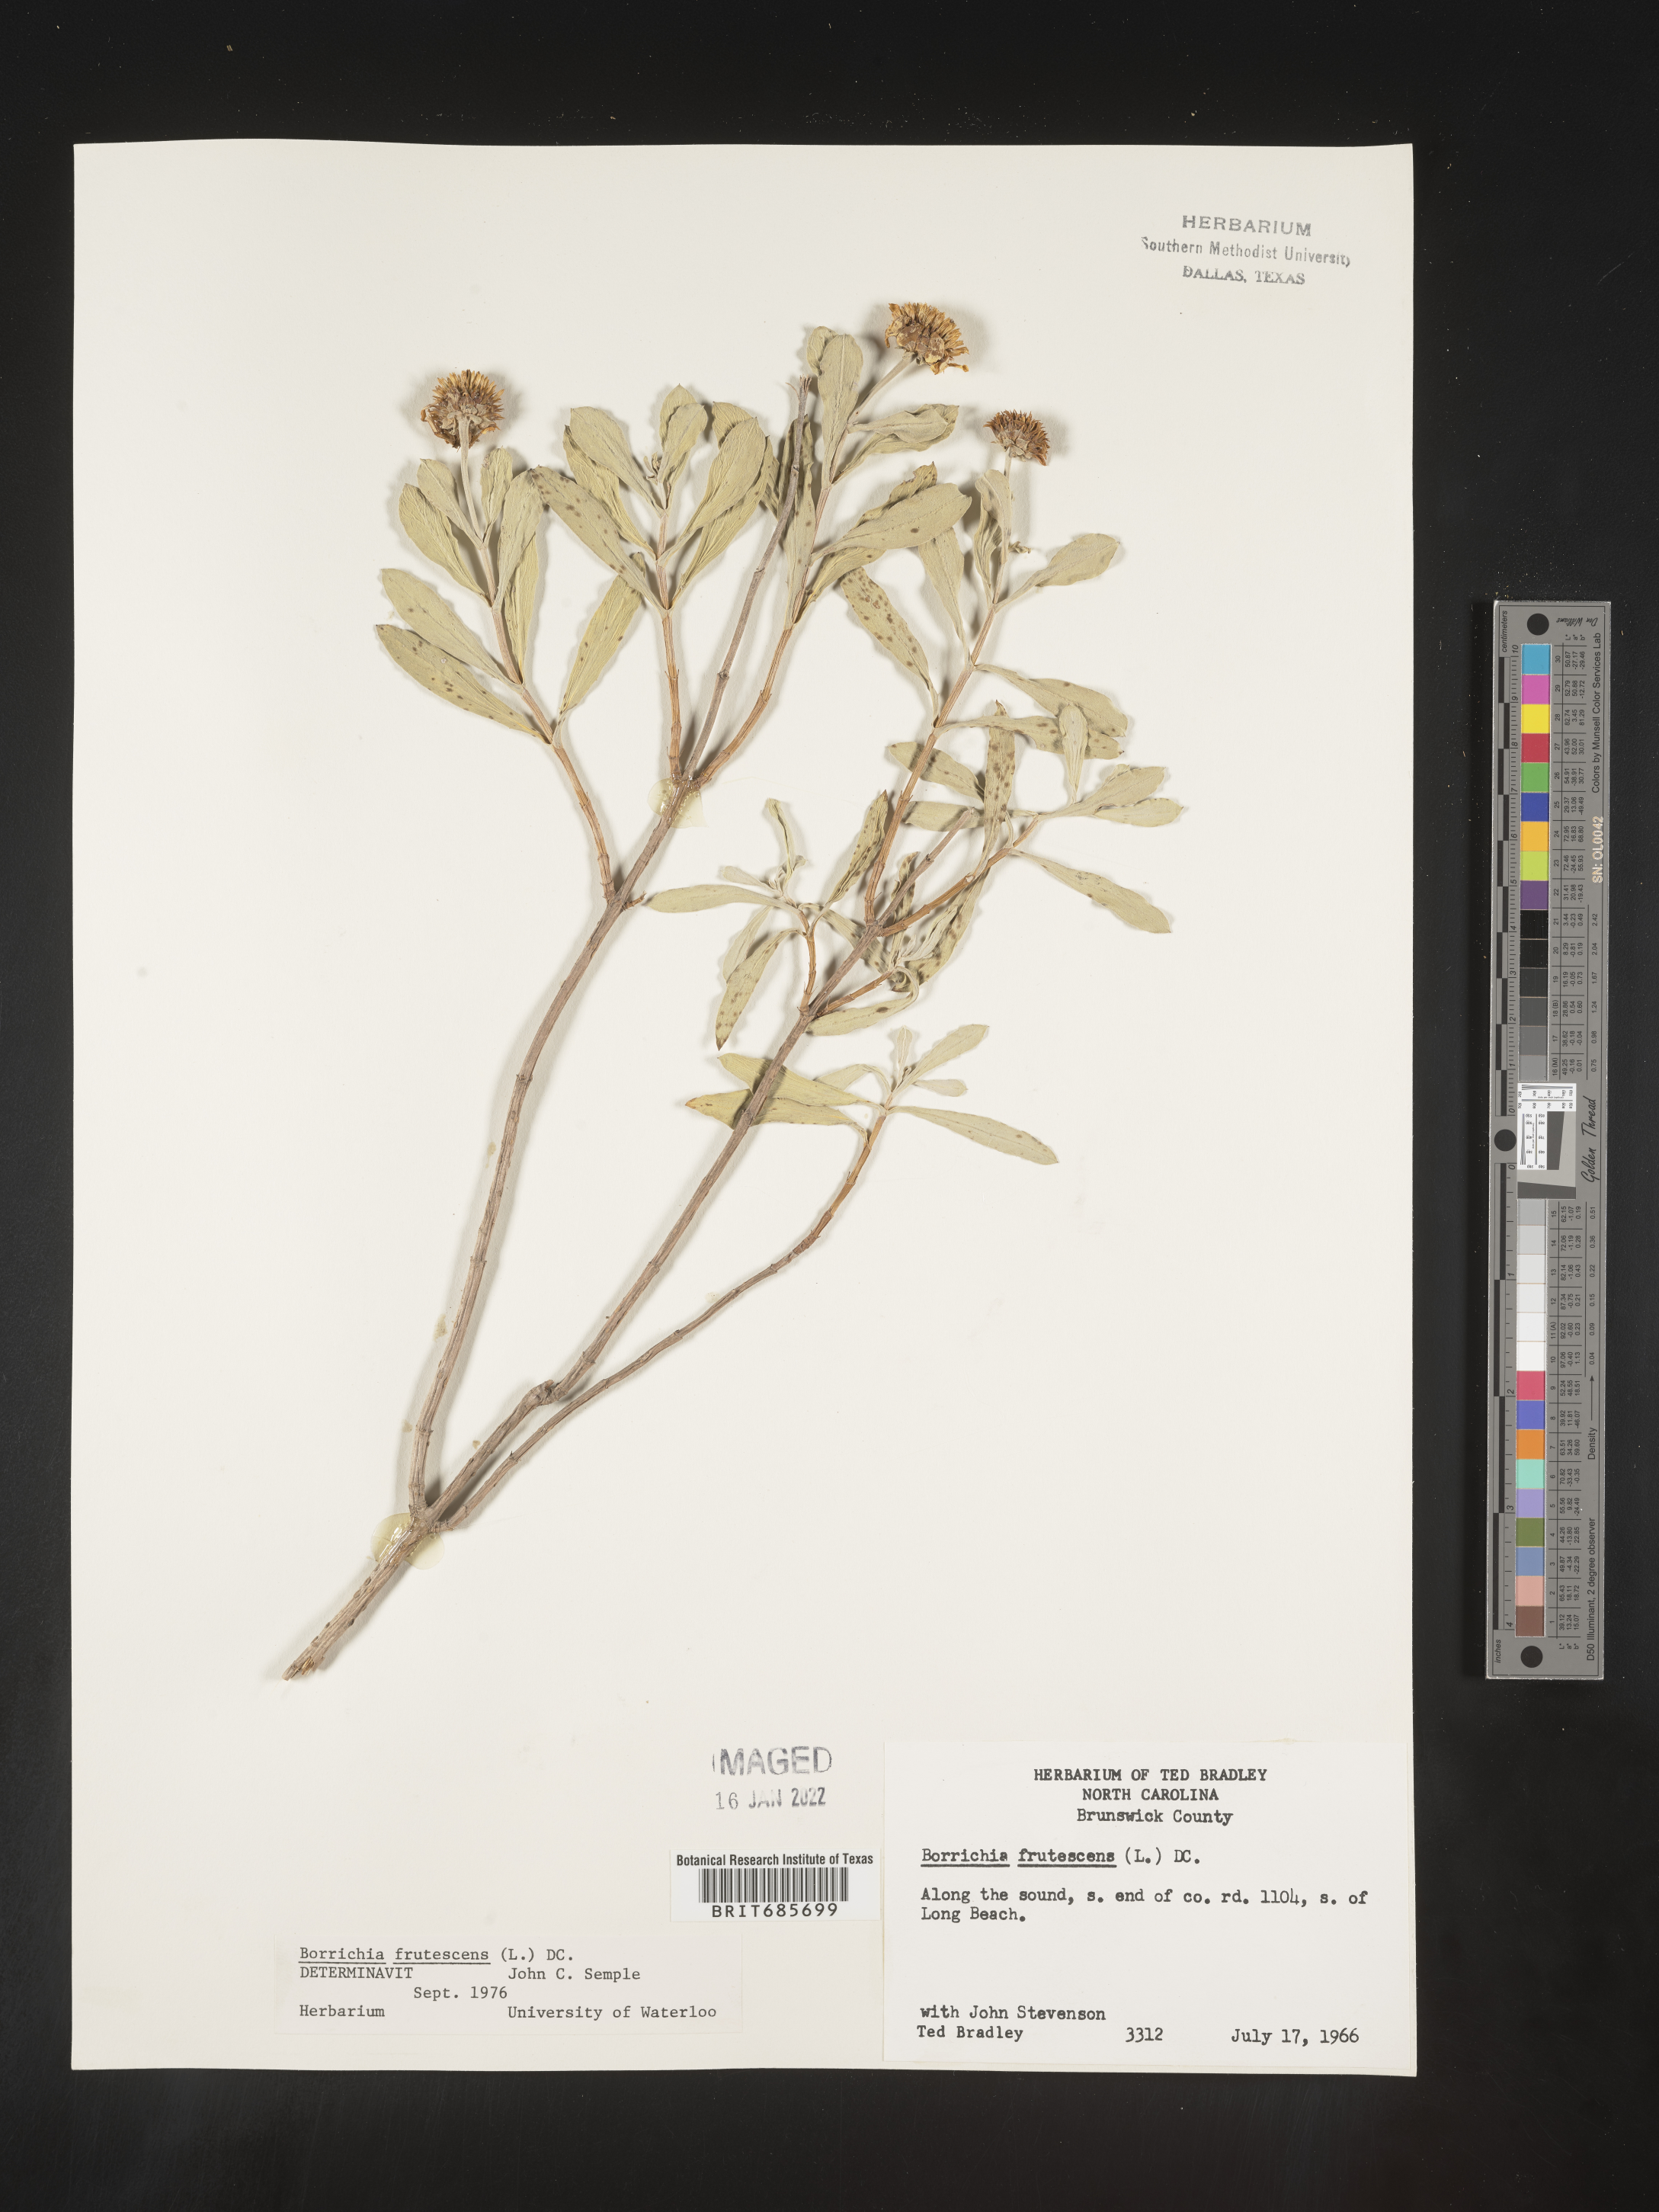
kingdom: Plantae
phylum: Tracheophyta
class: Magnoliopsida
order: Asterales
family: Asteraceae
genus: Borrichia
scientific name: Borrichia frutescens
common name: Sea oxeye
